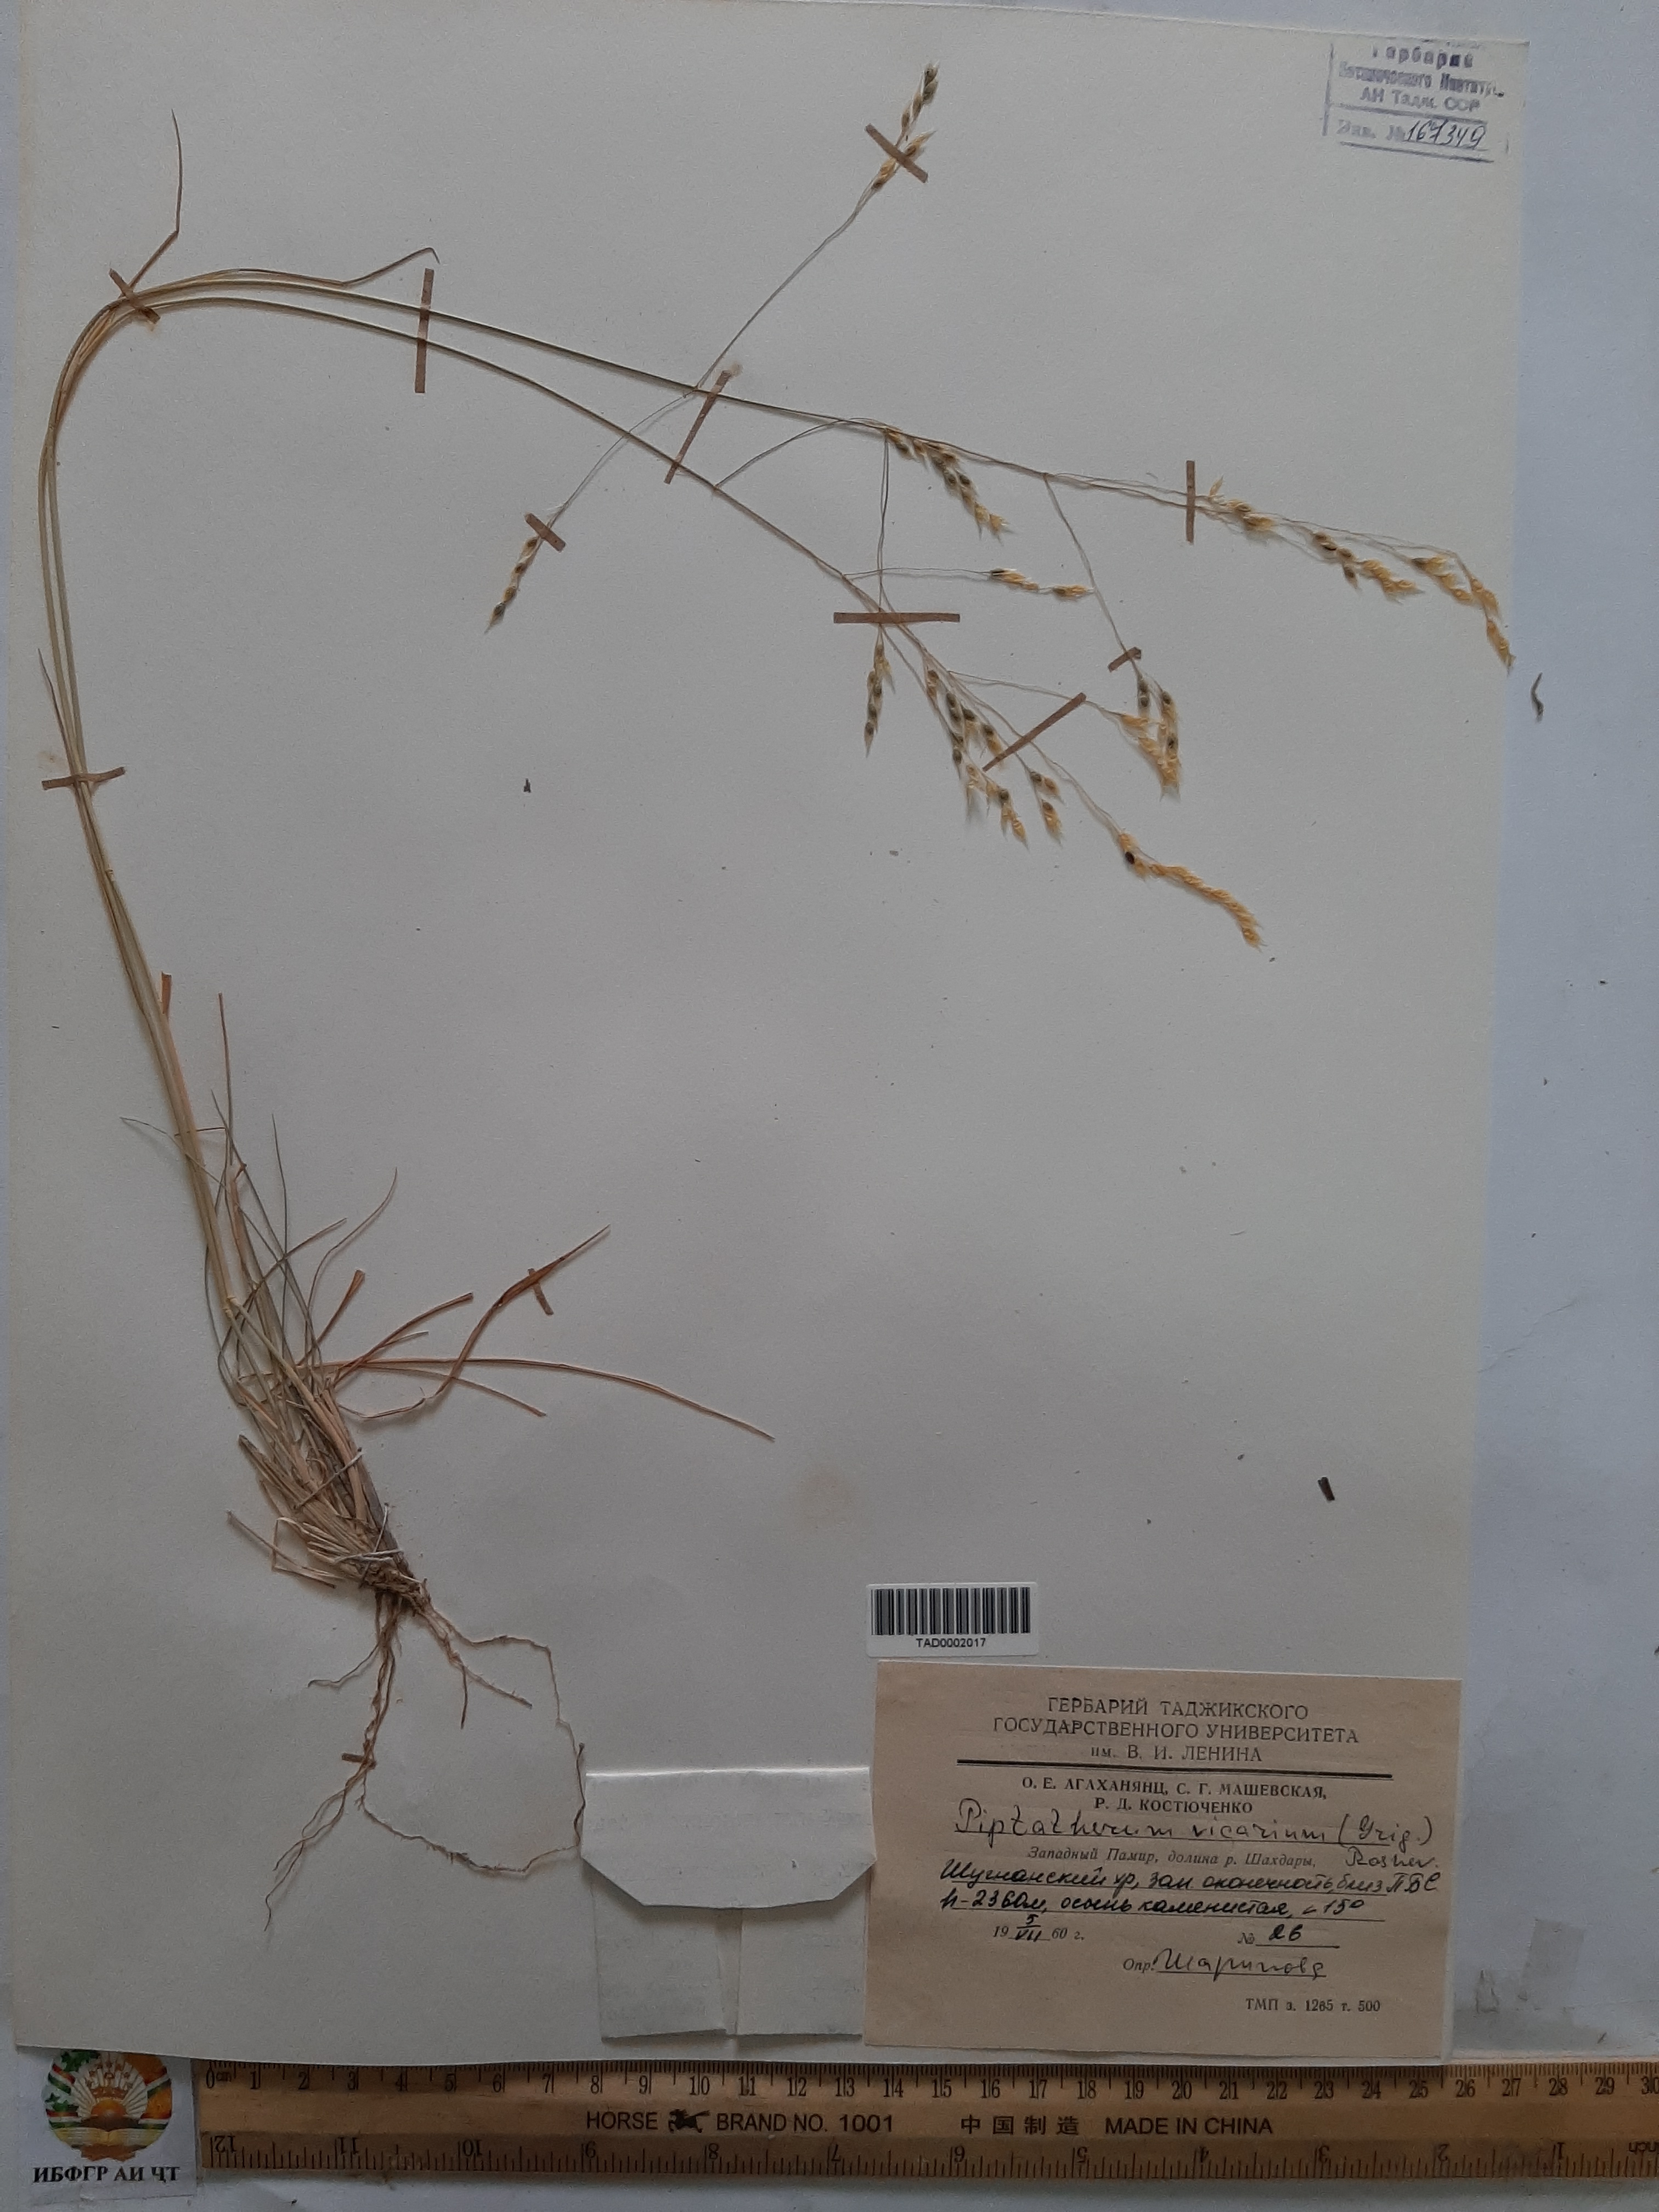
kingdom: Plantae
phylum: Tracheophyta
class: Liliopsida
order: Poales
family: Poaceae
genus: Piptatherum
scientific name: Piptatherum microcarpum
